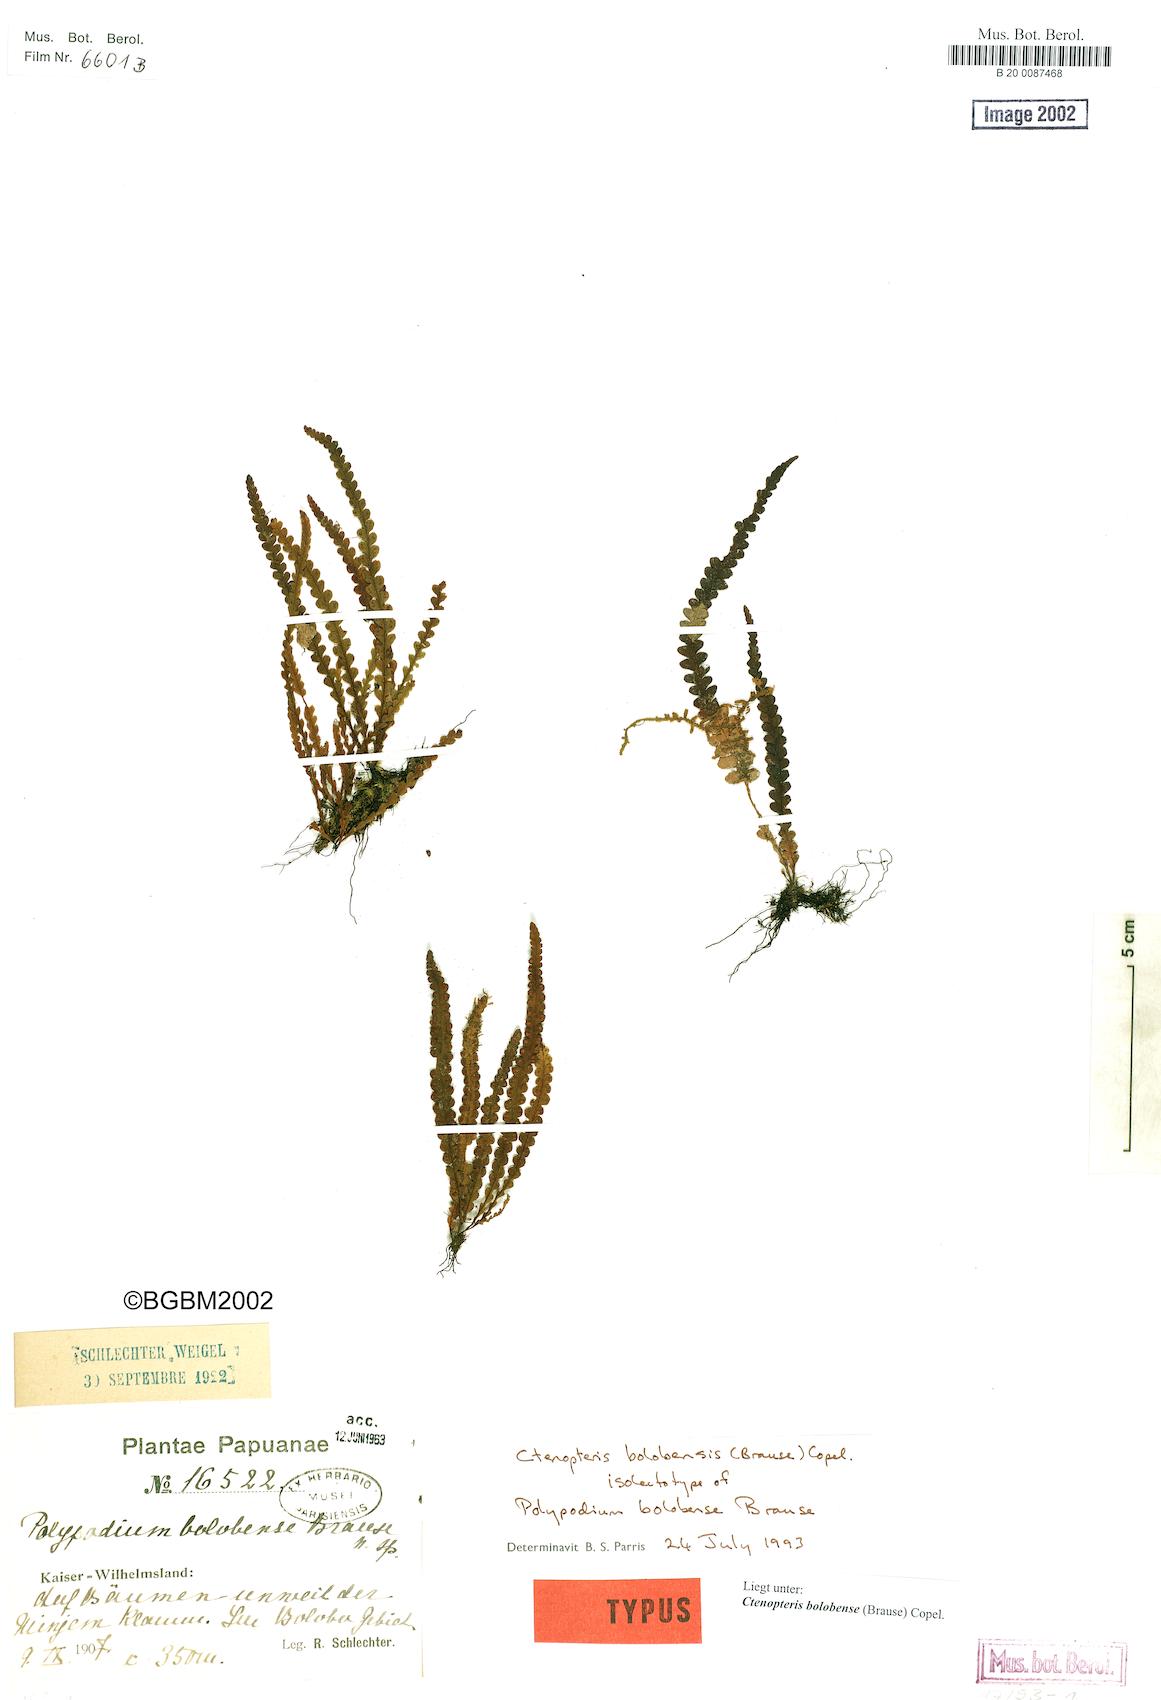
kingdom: Plantae
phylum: Tracheophyta
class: Polypodiopsida
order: Polypodiales
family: Polypodiaceae
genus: Prosaptia
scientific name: Prosaptia bolobensis
